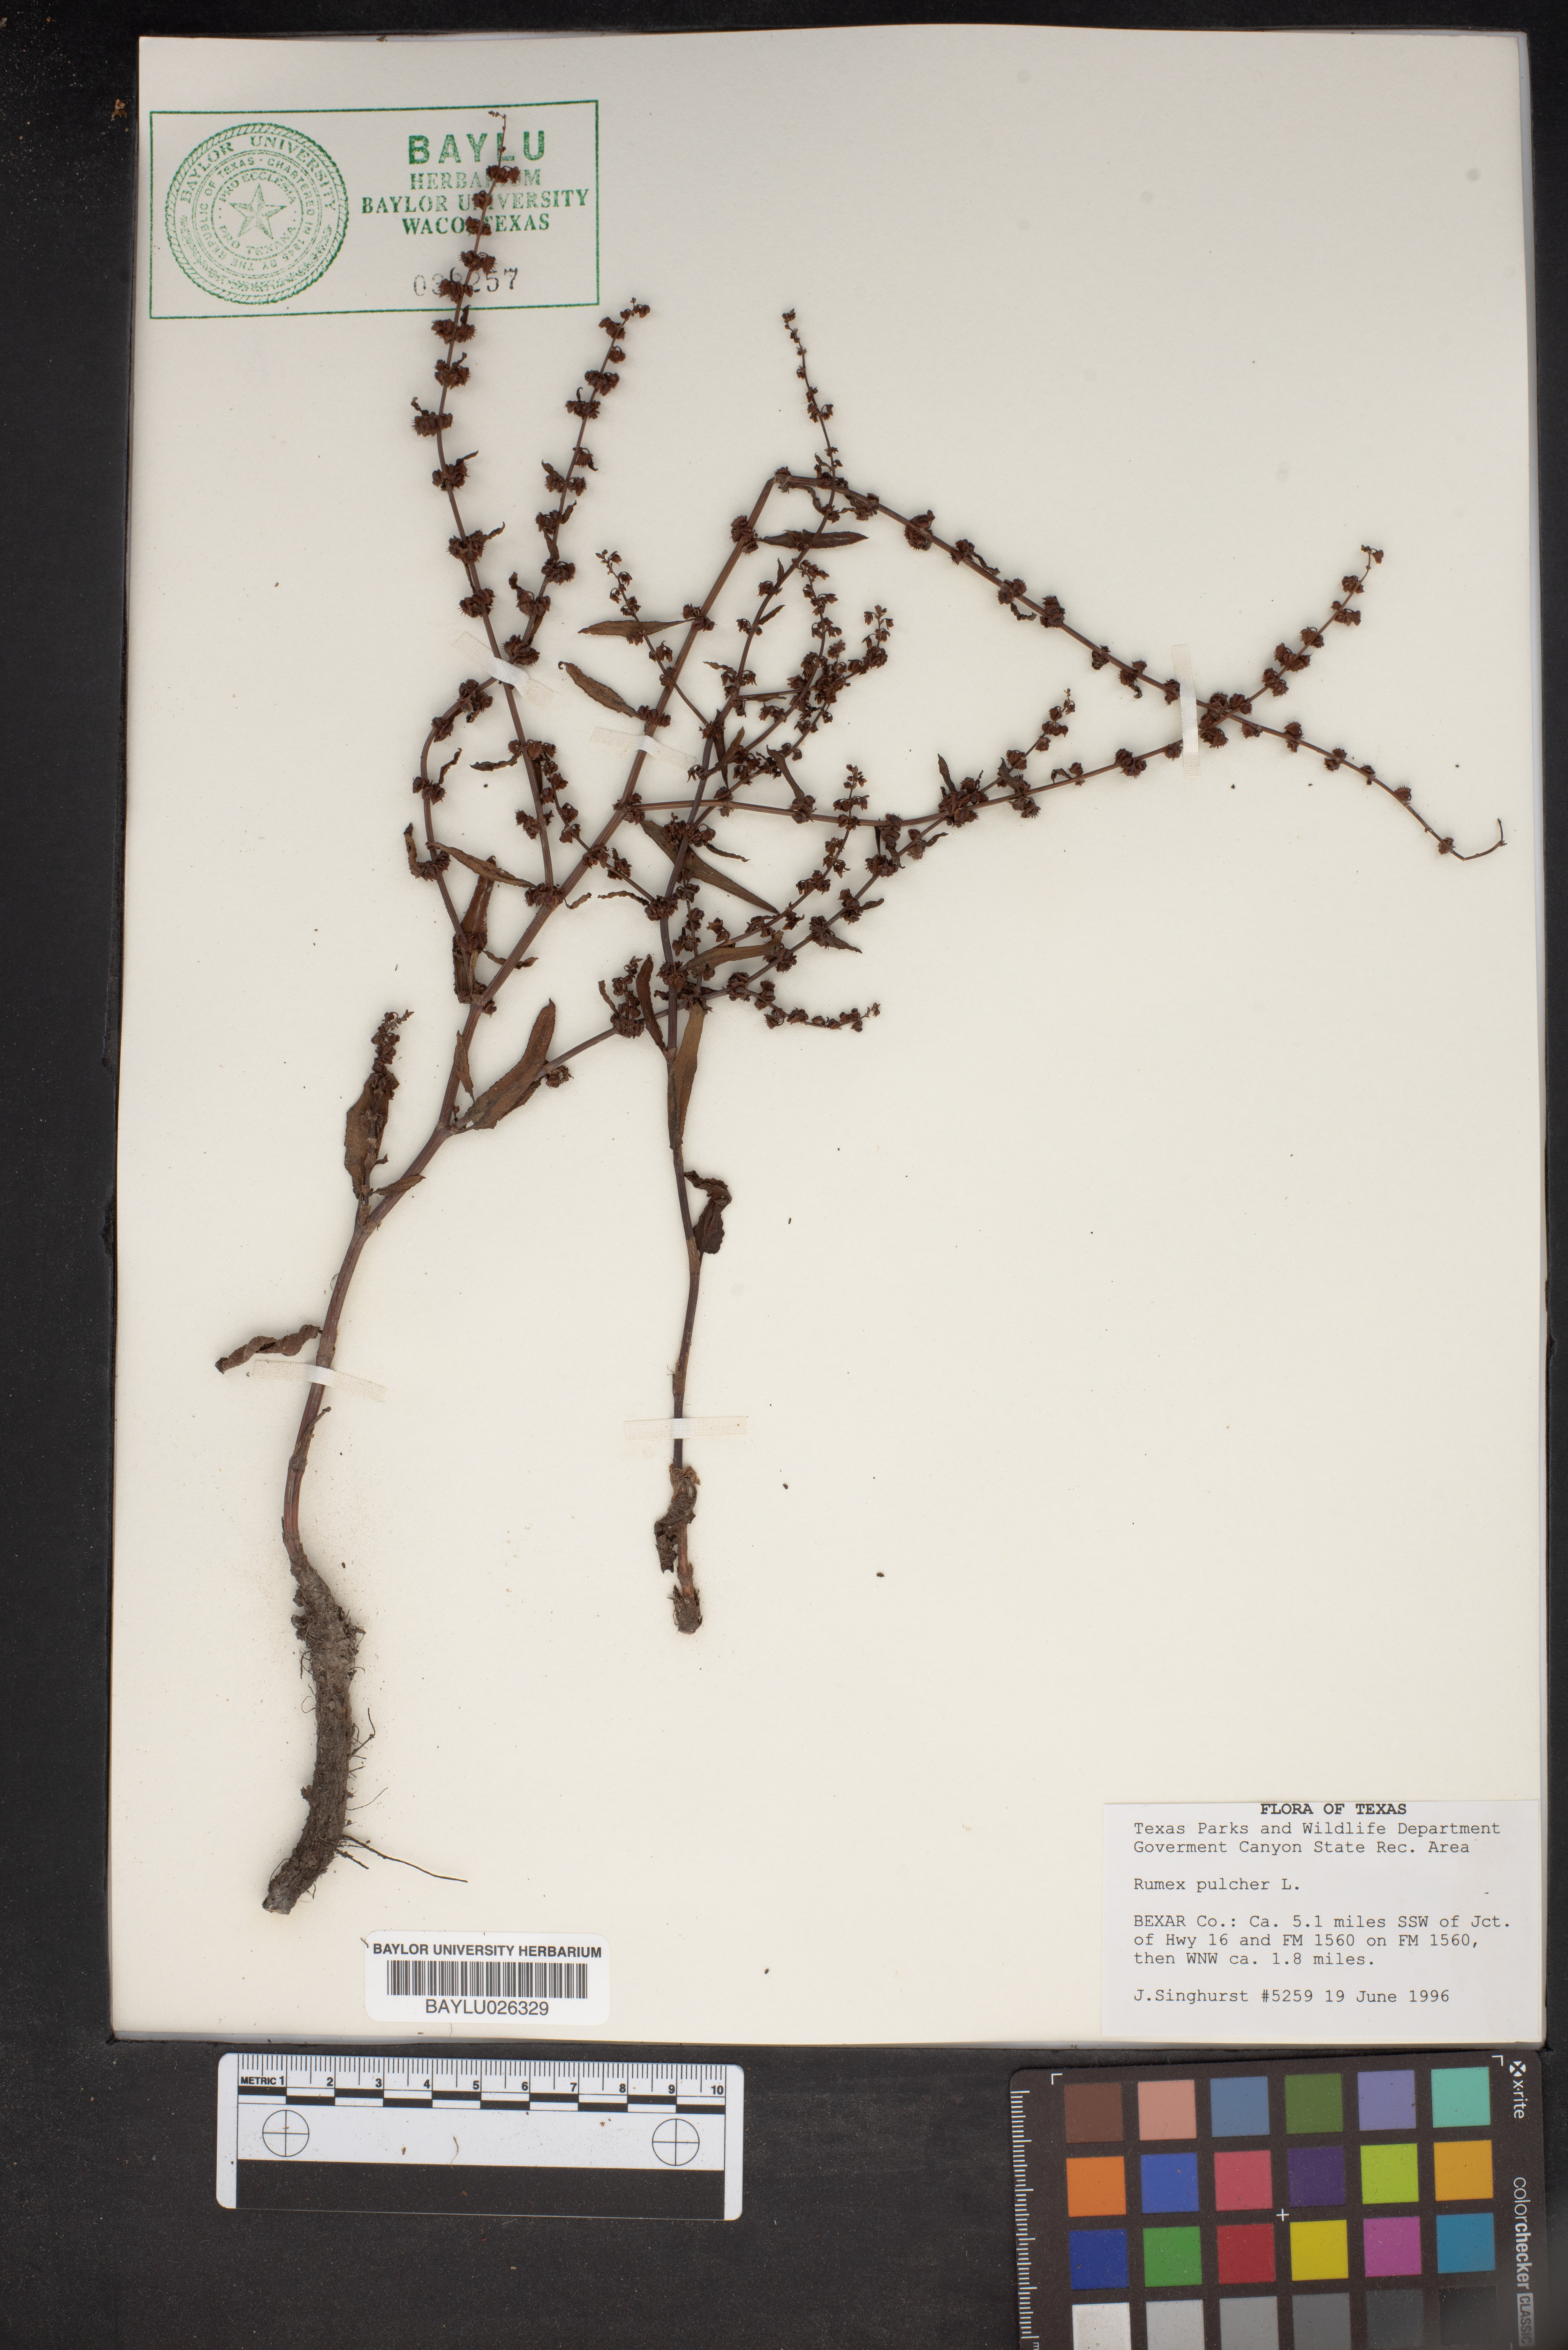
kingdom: Plantae
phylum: Tracheophyta
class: Magnoliopsida
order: Caryophyllales
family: Polygonaceae
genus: Rumex
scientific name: Rumex pulcher
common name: Fiddle dock
